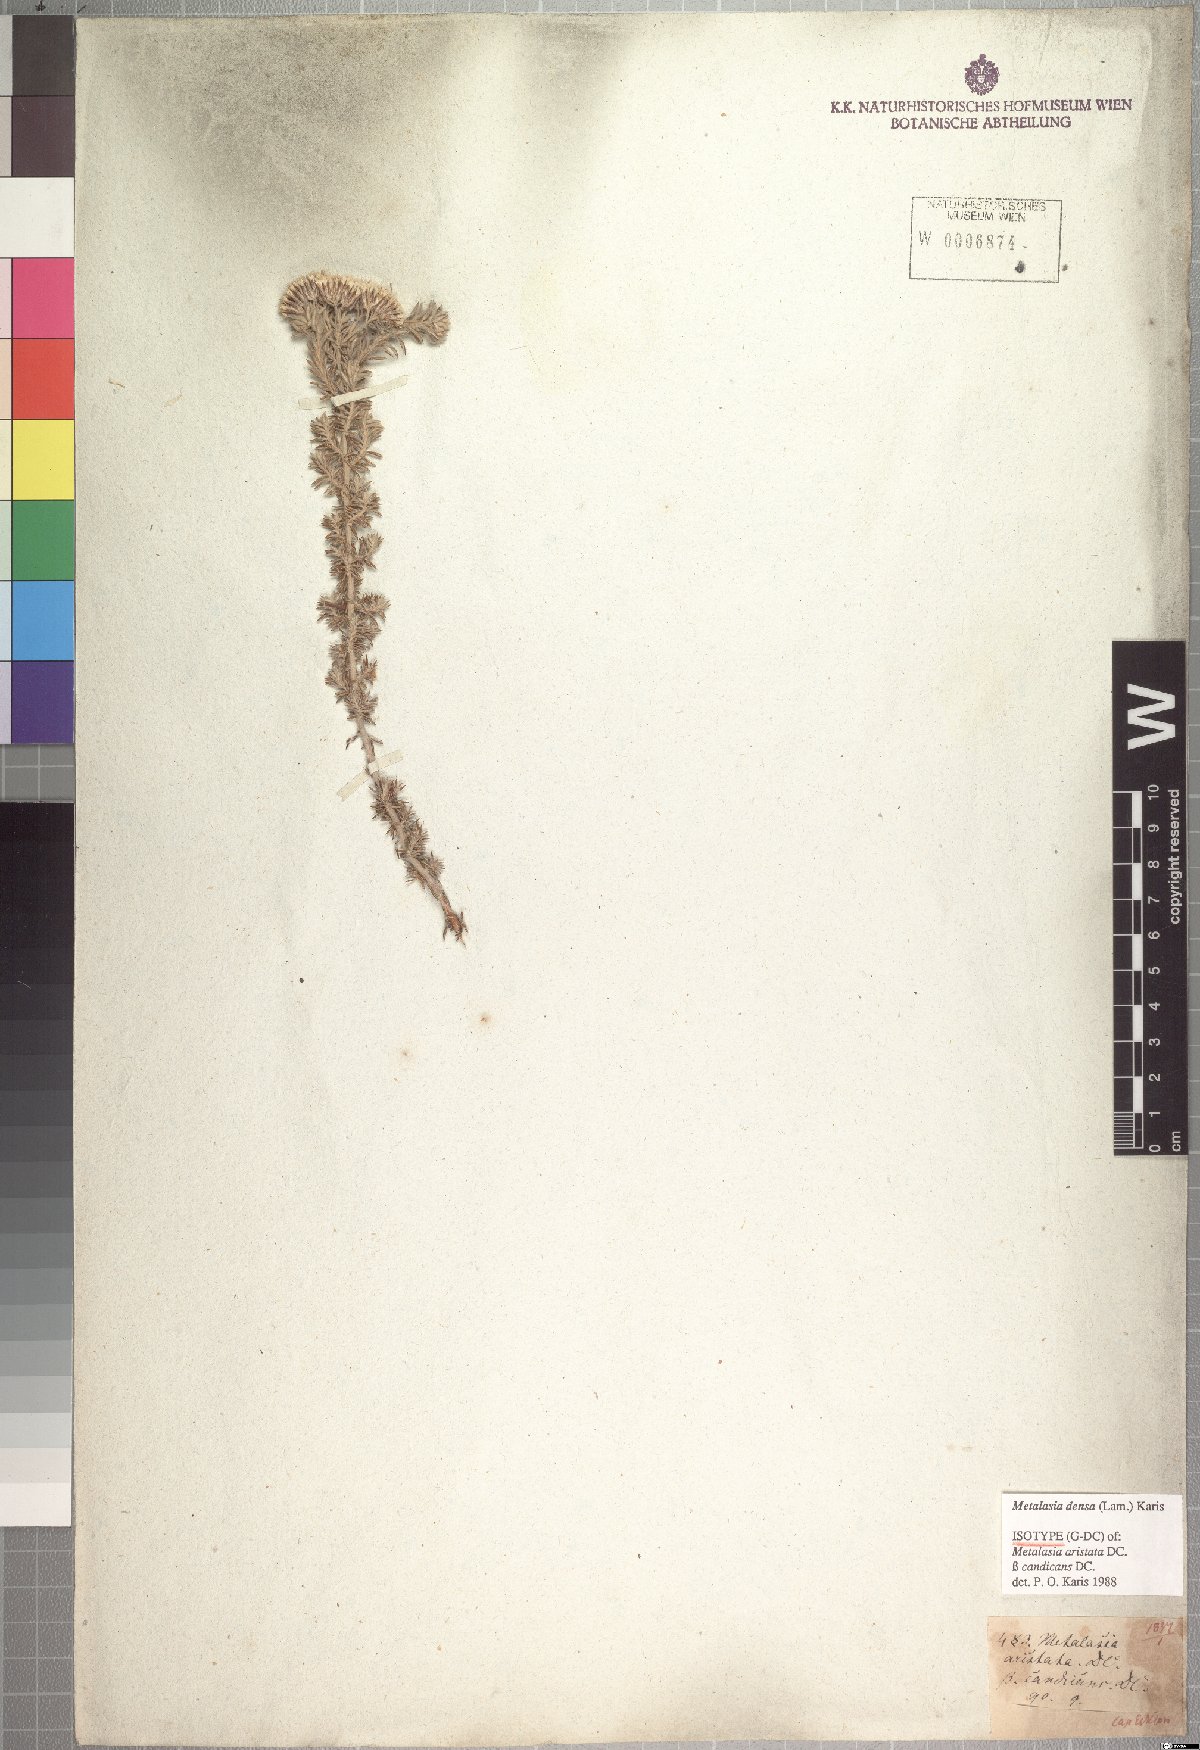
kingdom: Plantae
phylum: Tracheophyta
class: Magnoliopsida
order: Asterales
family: Asteraceae
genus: Metalasia
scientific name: Metalasia densa
